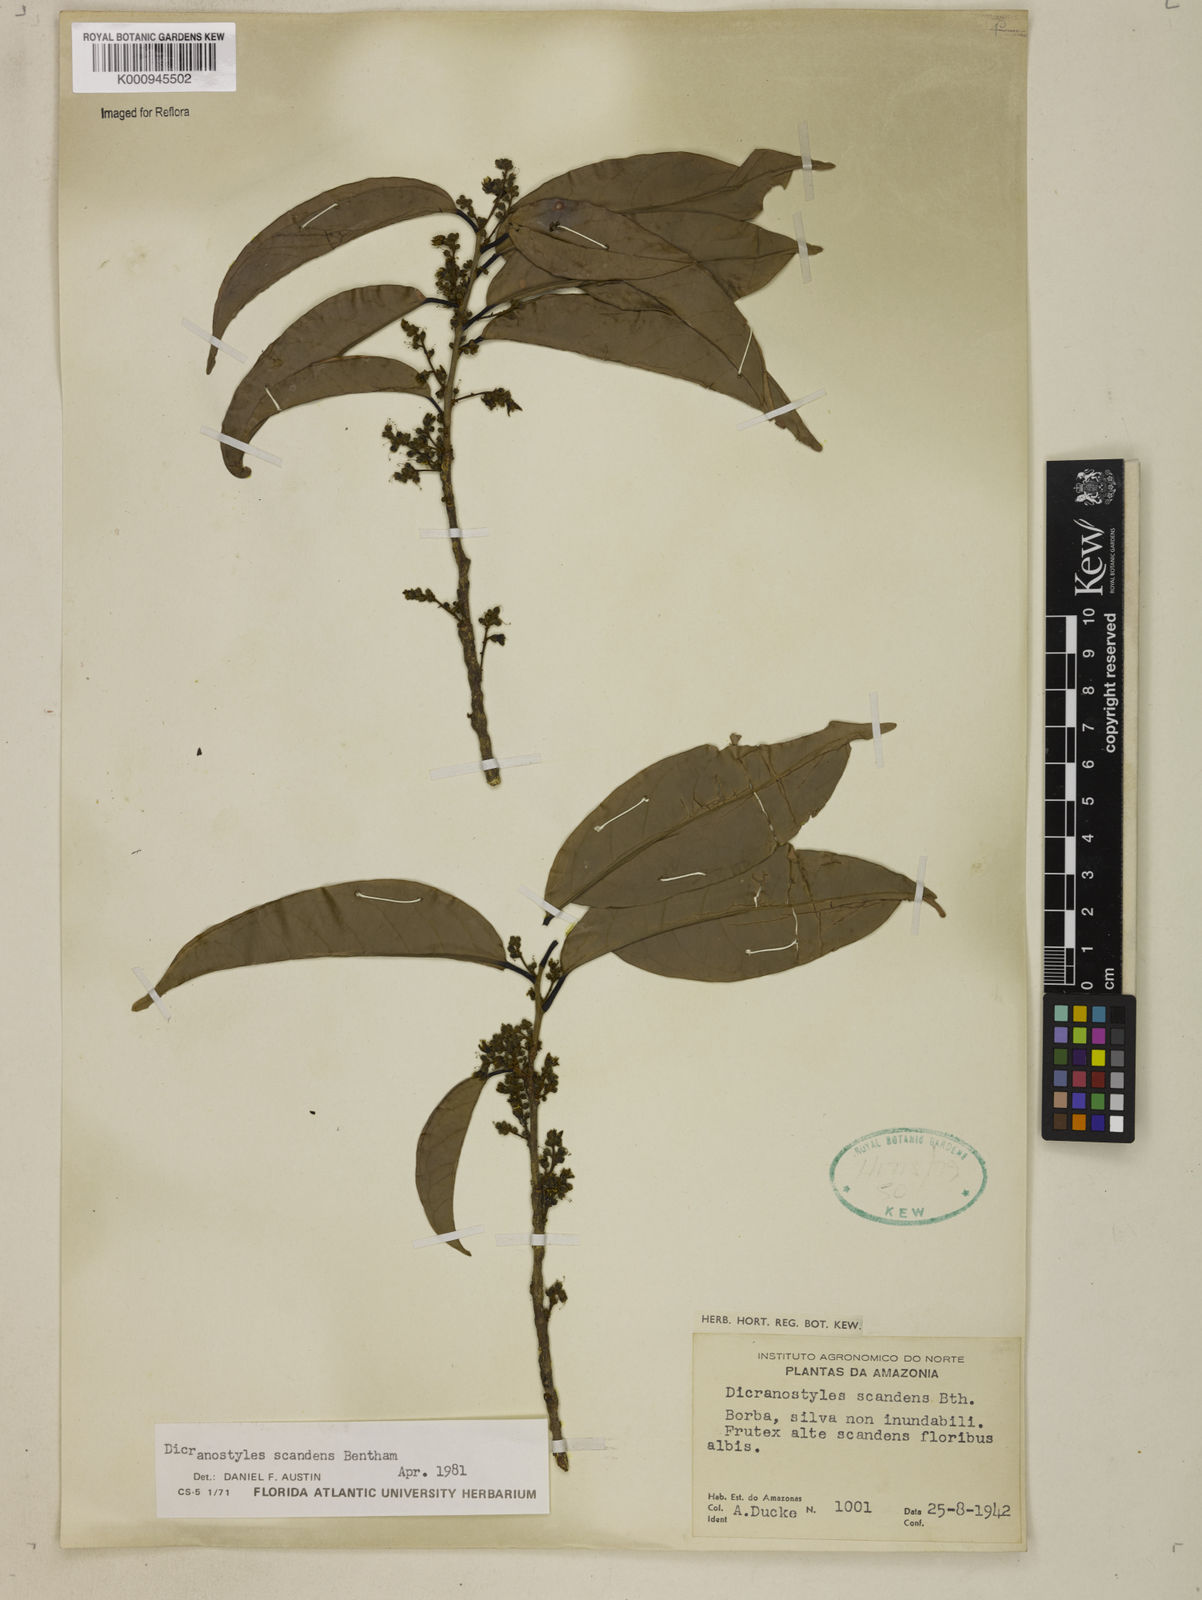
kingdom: Plantae
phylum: Tracheophyta
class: Magnoliopsida
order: Solanales
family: Convolvulaceae
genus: Dicranostyles
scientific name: Dicranostyles scandens
